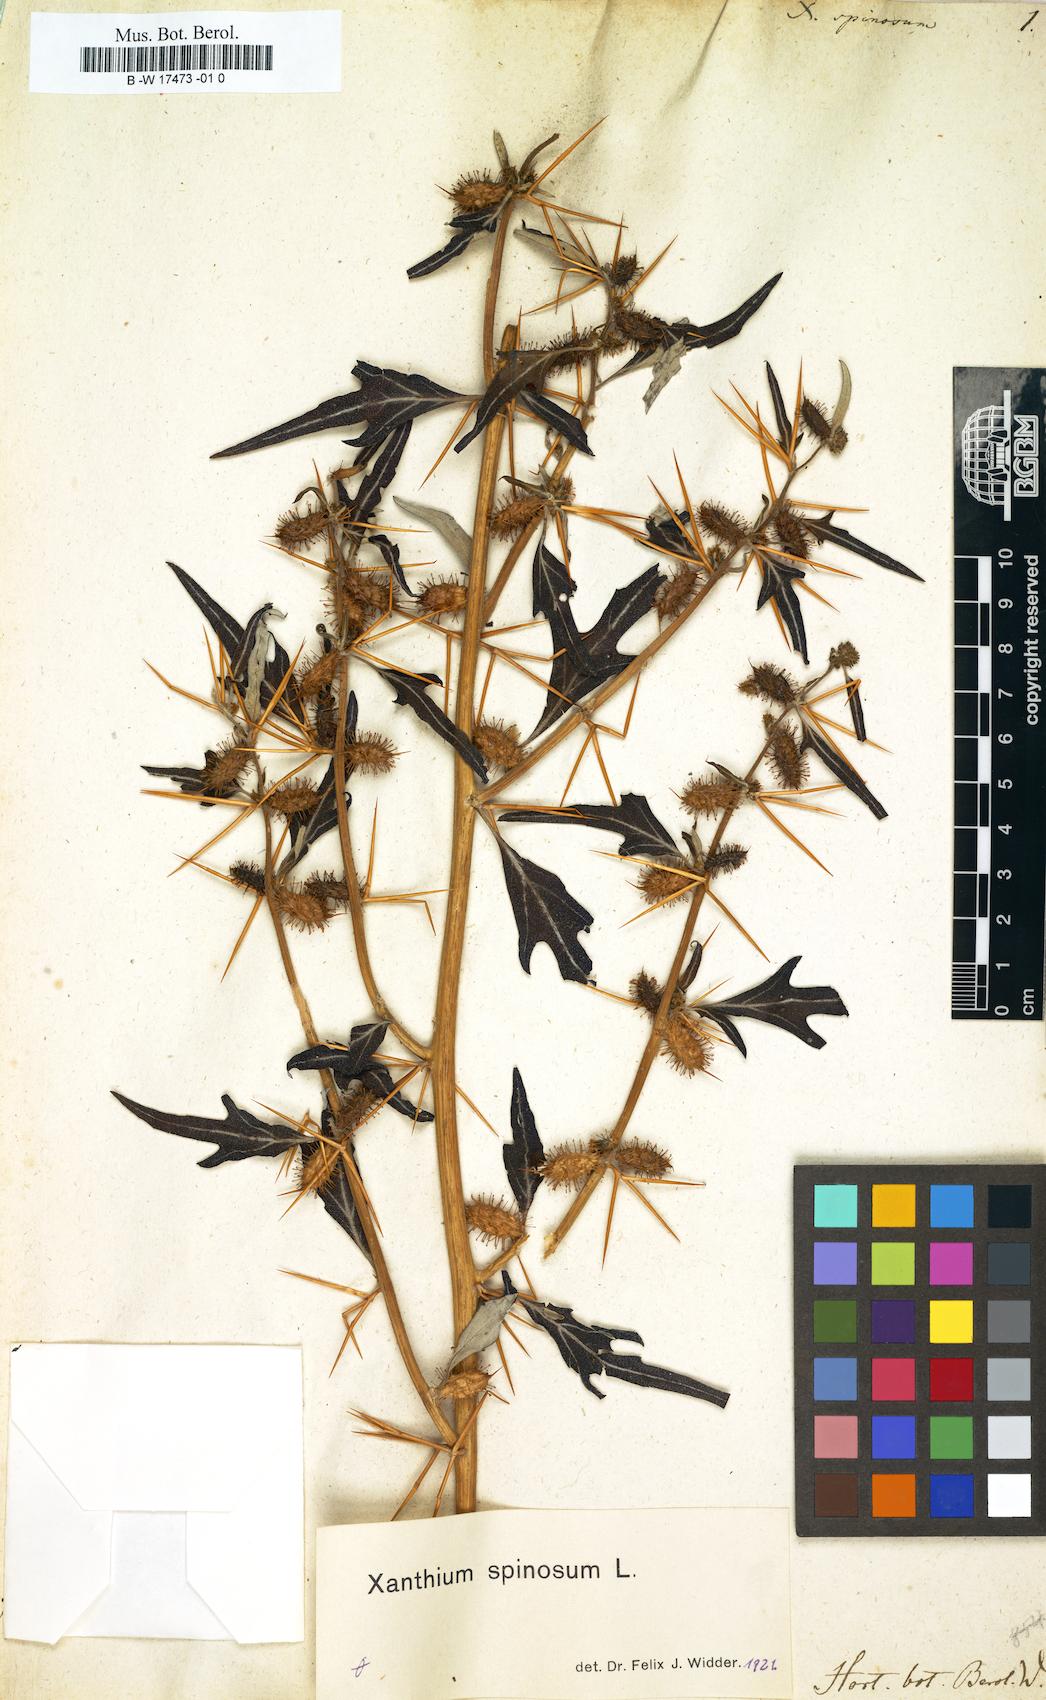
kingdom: Plantae
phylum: Tracheophyta
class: Magnoliopsida
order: Asterales
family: Asteraceae
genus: Xanthium
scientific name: Xanthium spinosum
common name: Spiny cocklebur
